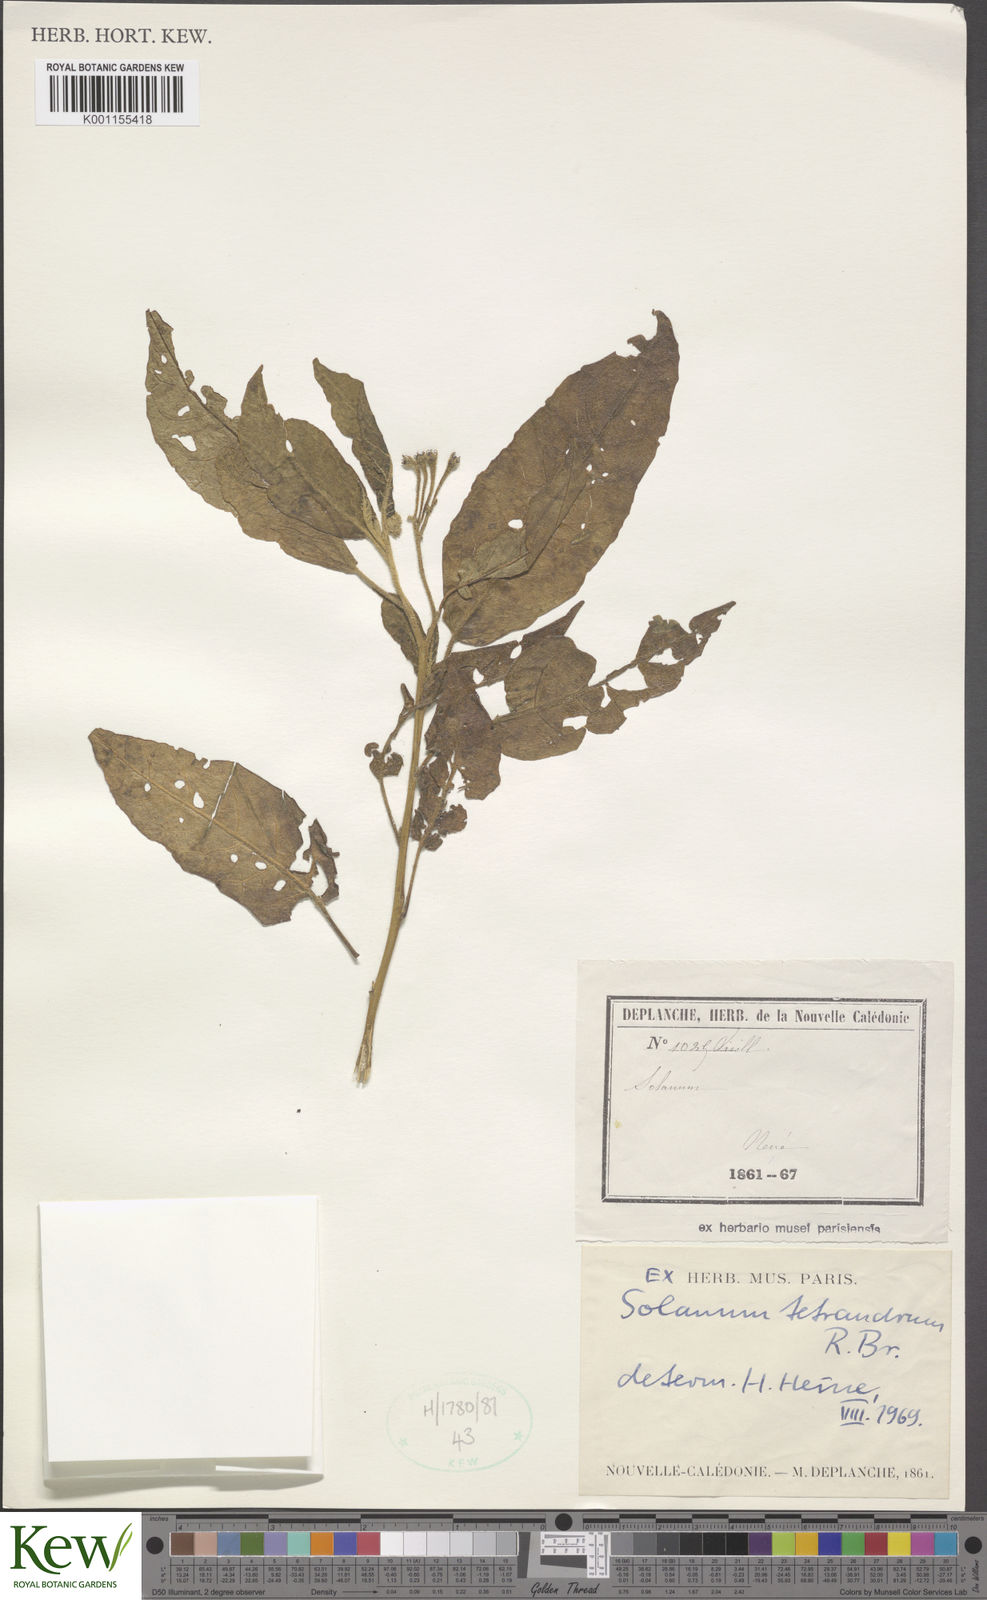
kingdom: Plantae
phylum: Tracheophyta
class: Magnoliopsida
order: Solanales
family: Solanaceae
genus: Solanum
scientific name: Solanum tetrandrum
